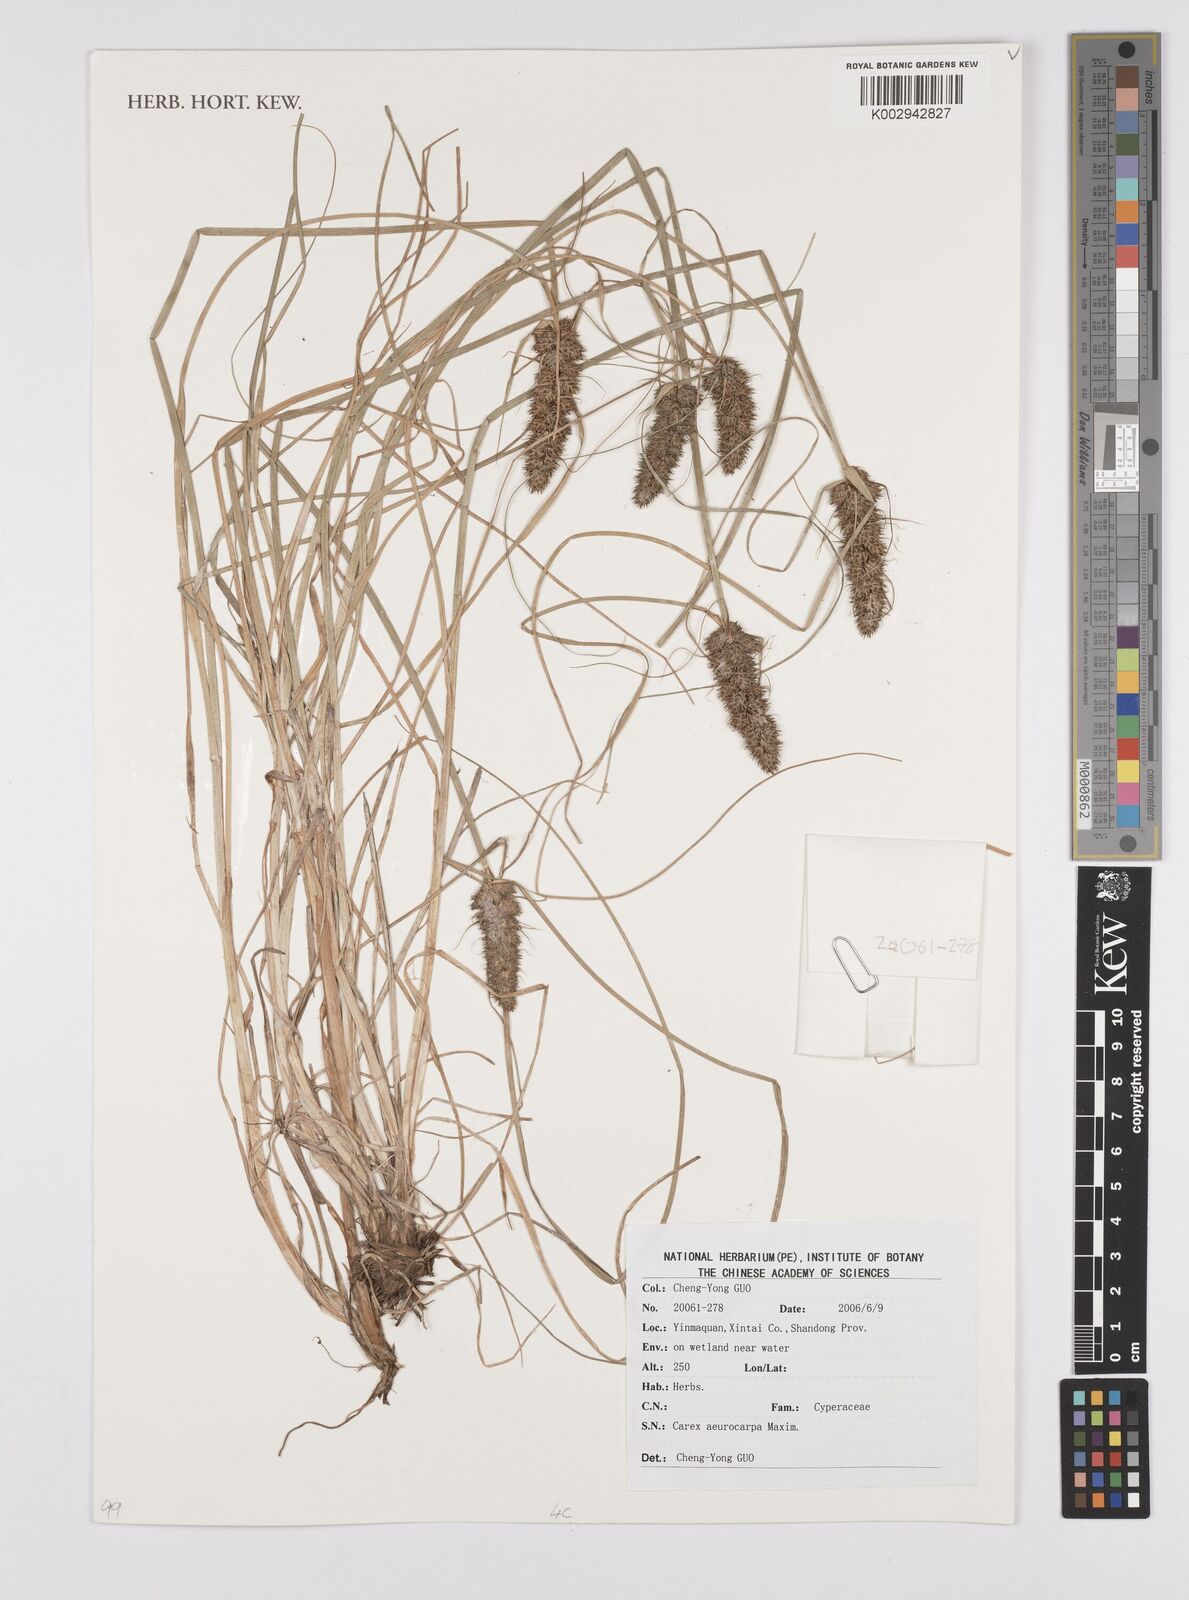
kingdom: Plantae
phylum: Tracheophyta
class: Liliopsida
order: Poales
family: Cyperaceae
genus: Carex
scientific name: Carex norvegica
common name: Close-headed alpine-sedge
